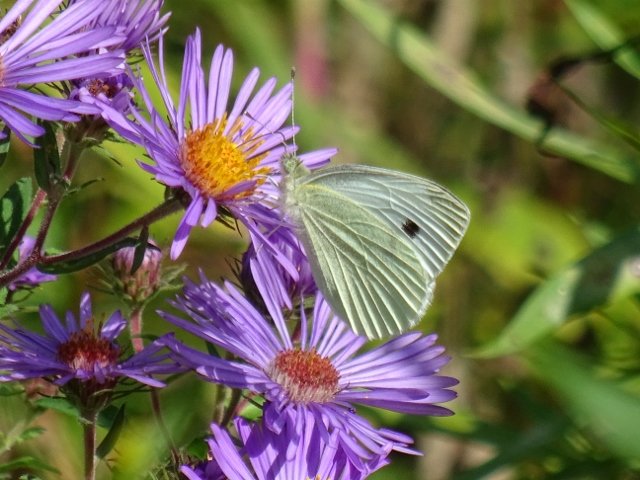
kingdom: Animalia
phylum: Arthropoda
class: Insecta
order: Lepidoptera
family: Pieridae
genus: Pieris
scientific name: Pieris rapae
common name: Cabbage White
